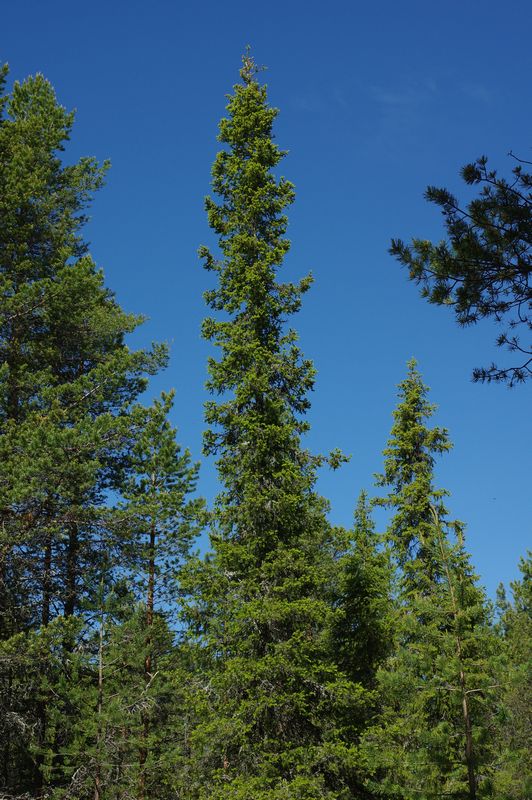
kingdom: Plantae
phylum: Tracheophyta
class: Pinopsida
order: Pinales
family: Pinaceae
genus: Picea
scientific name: Picea obovata
